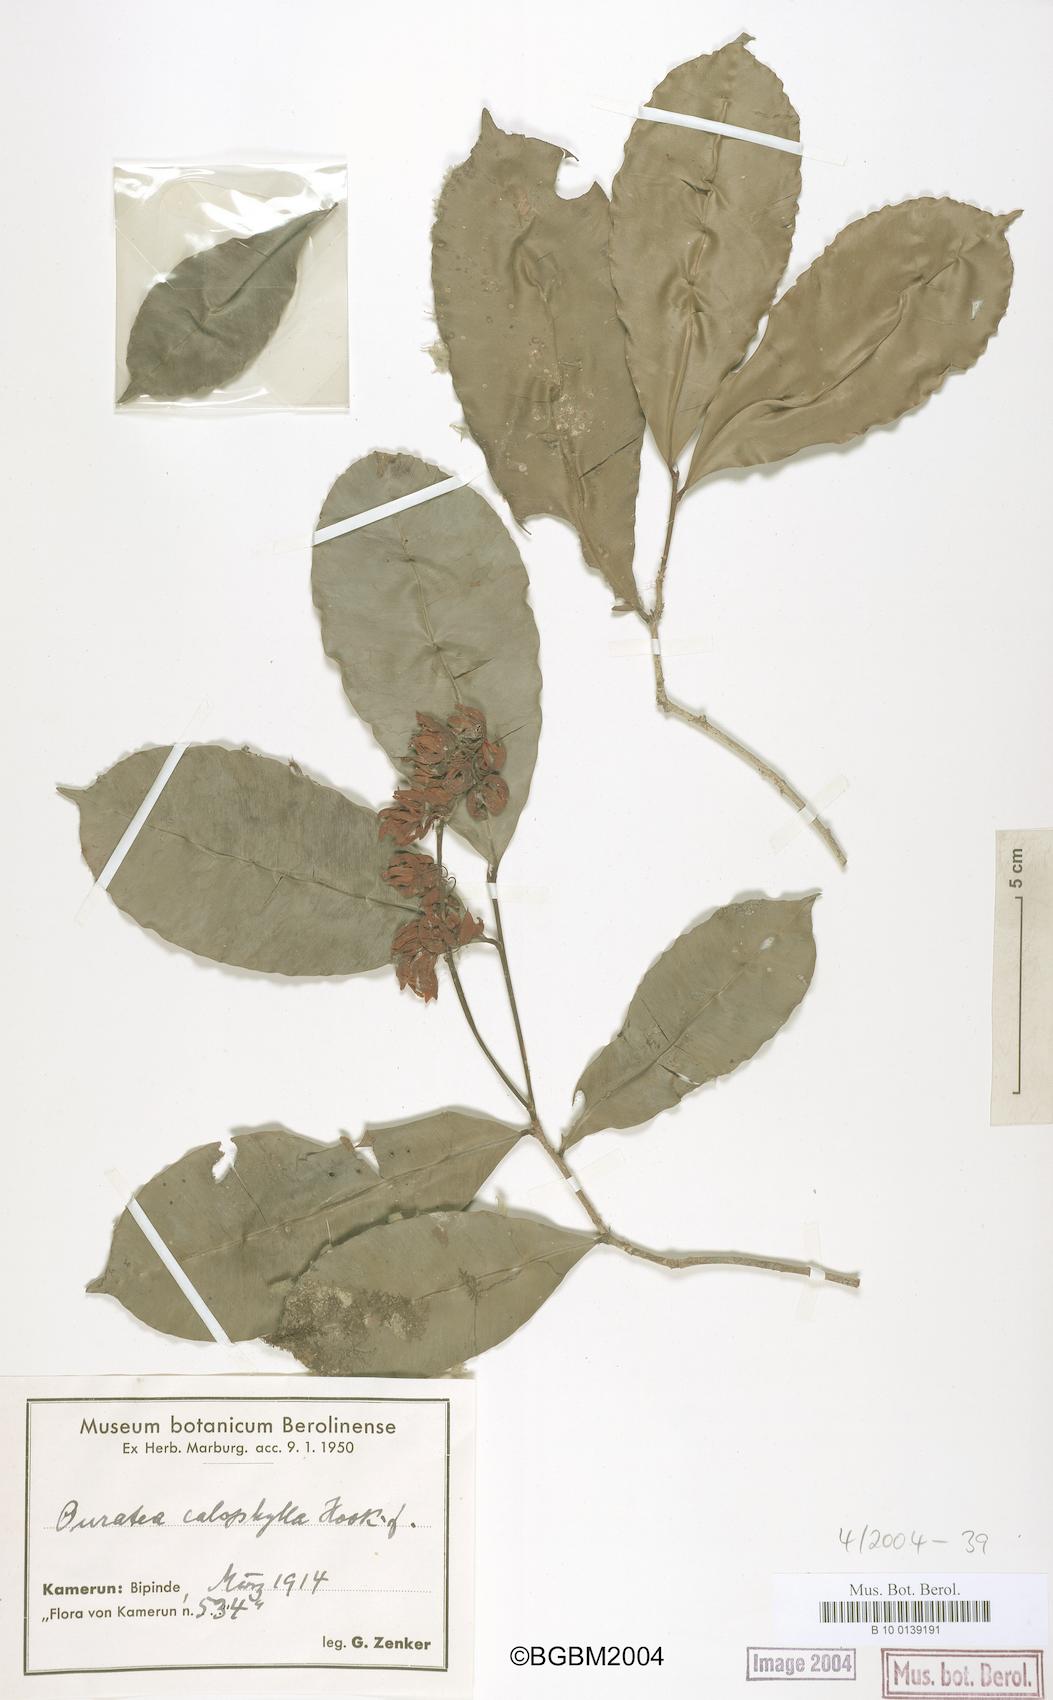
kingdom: Plantae
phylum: Tracheophyta
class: Magnoliopsida
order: Malpighiales
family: Ochnaceae
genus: Rhabdophyllum
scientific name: Rhabdophyllum calophyllum
